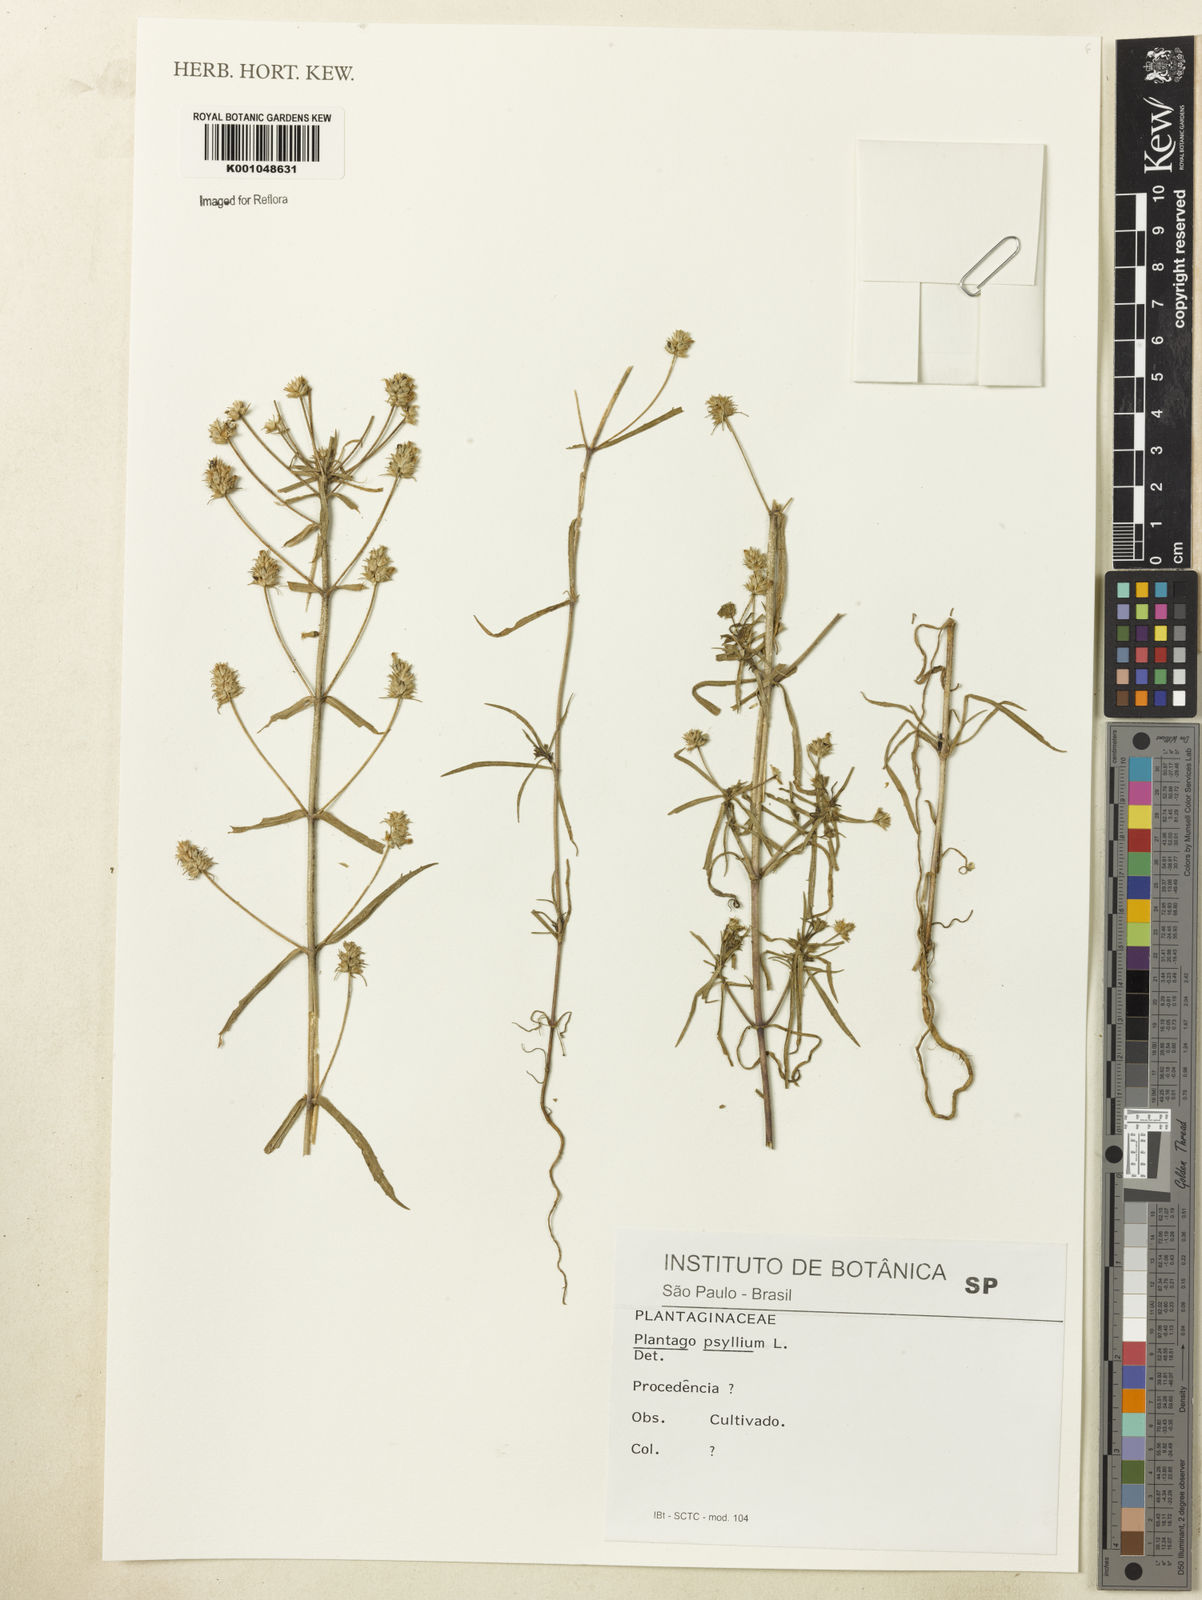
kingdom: Plantae
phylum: Tracheophyta
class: Magnoliopsida
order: Lamiales
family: Plantaginaceae
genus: Plantago
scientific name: Plantago
